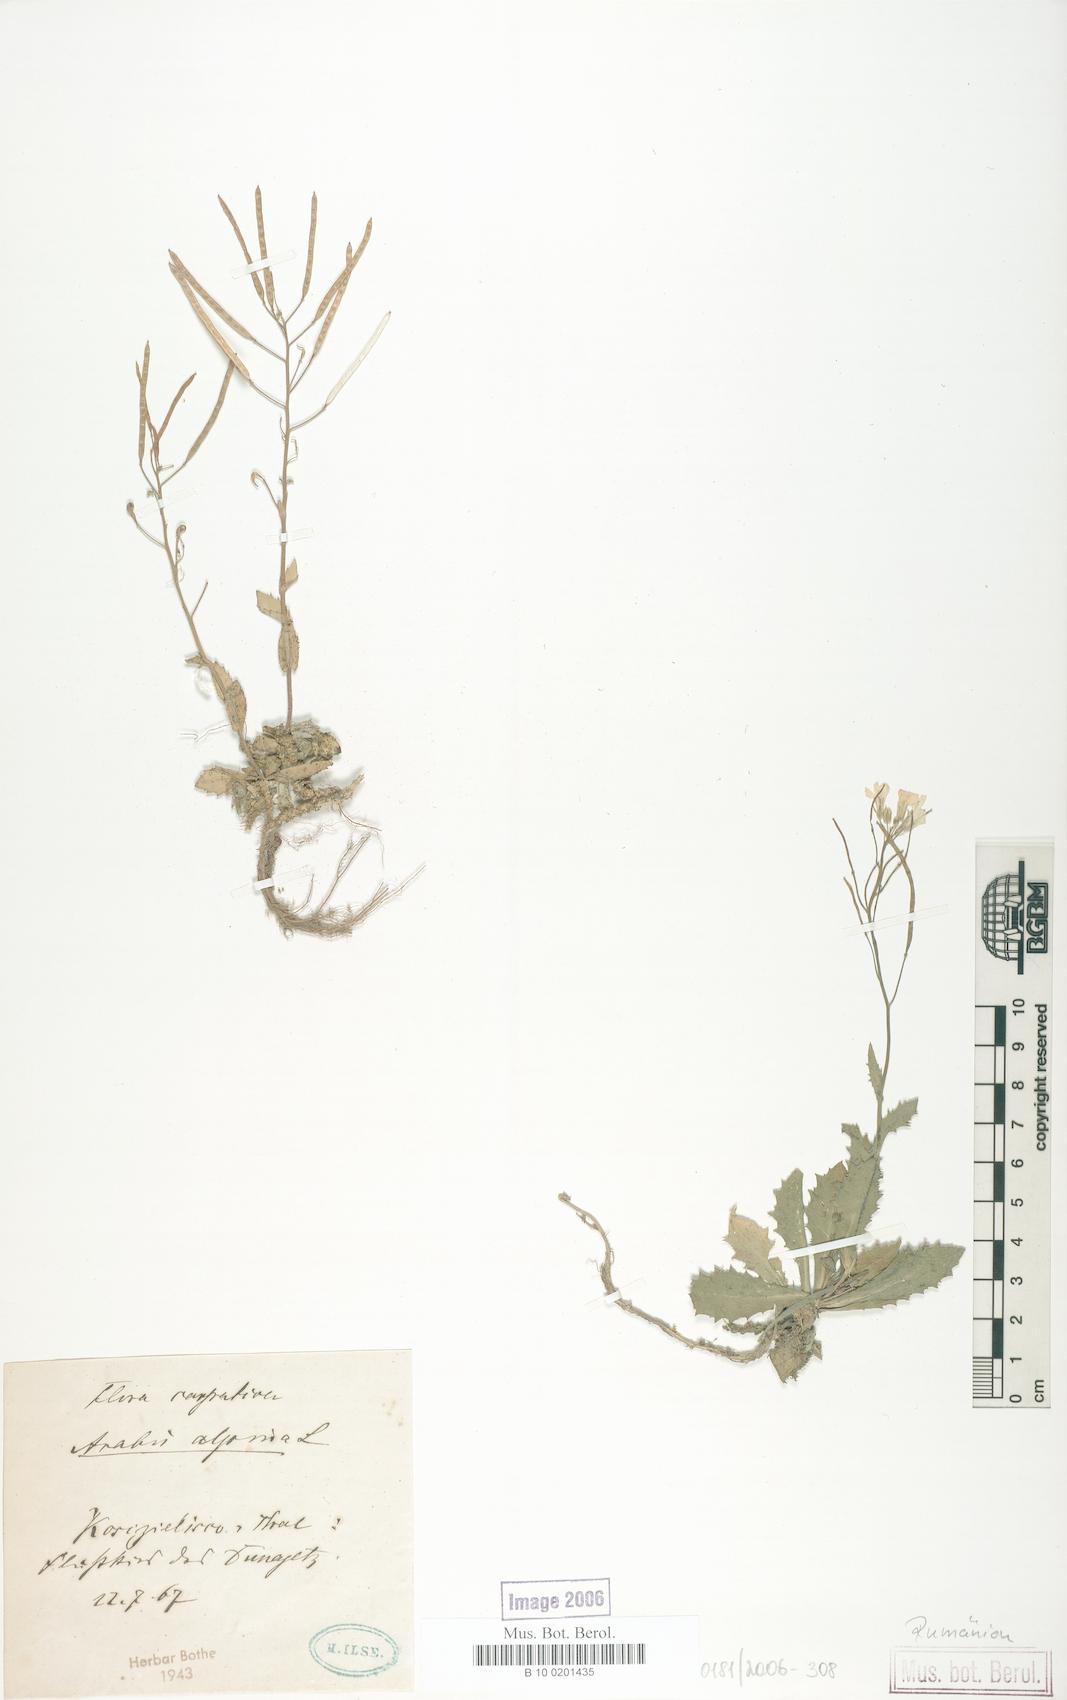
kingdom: Plantae
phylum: Tracheophyta
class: Magnoliopsida
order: Brassicales
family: Brassicaceae
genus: Arabis
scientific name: Arabis alpina
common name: Alpine rock-cress
